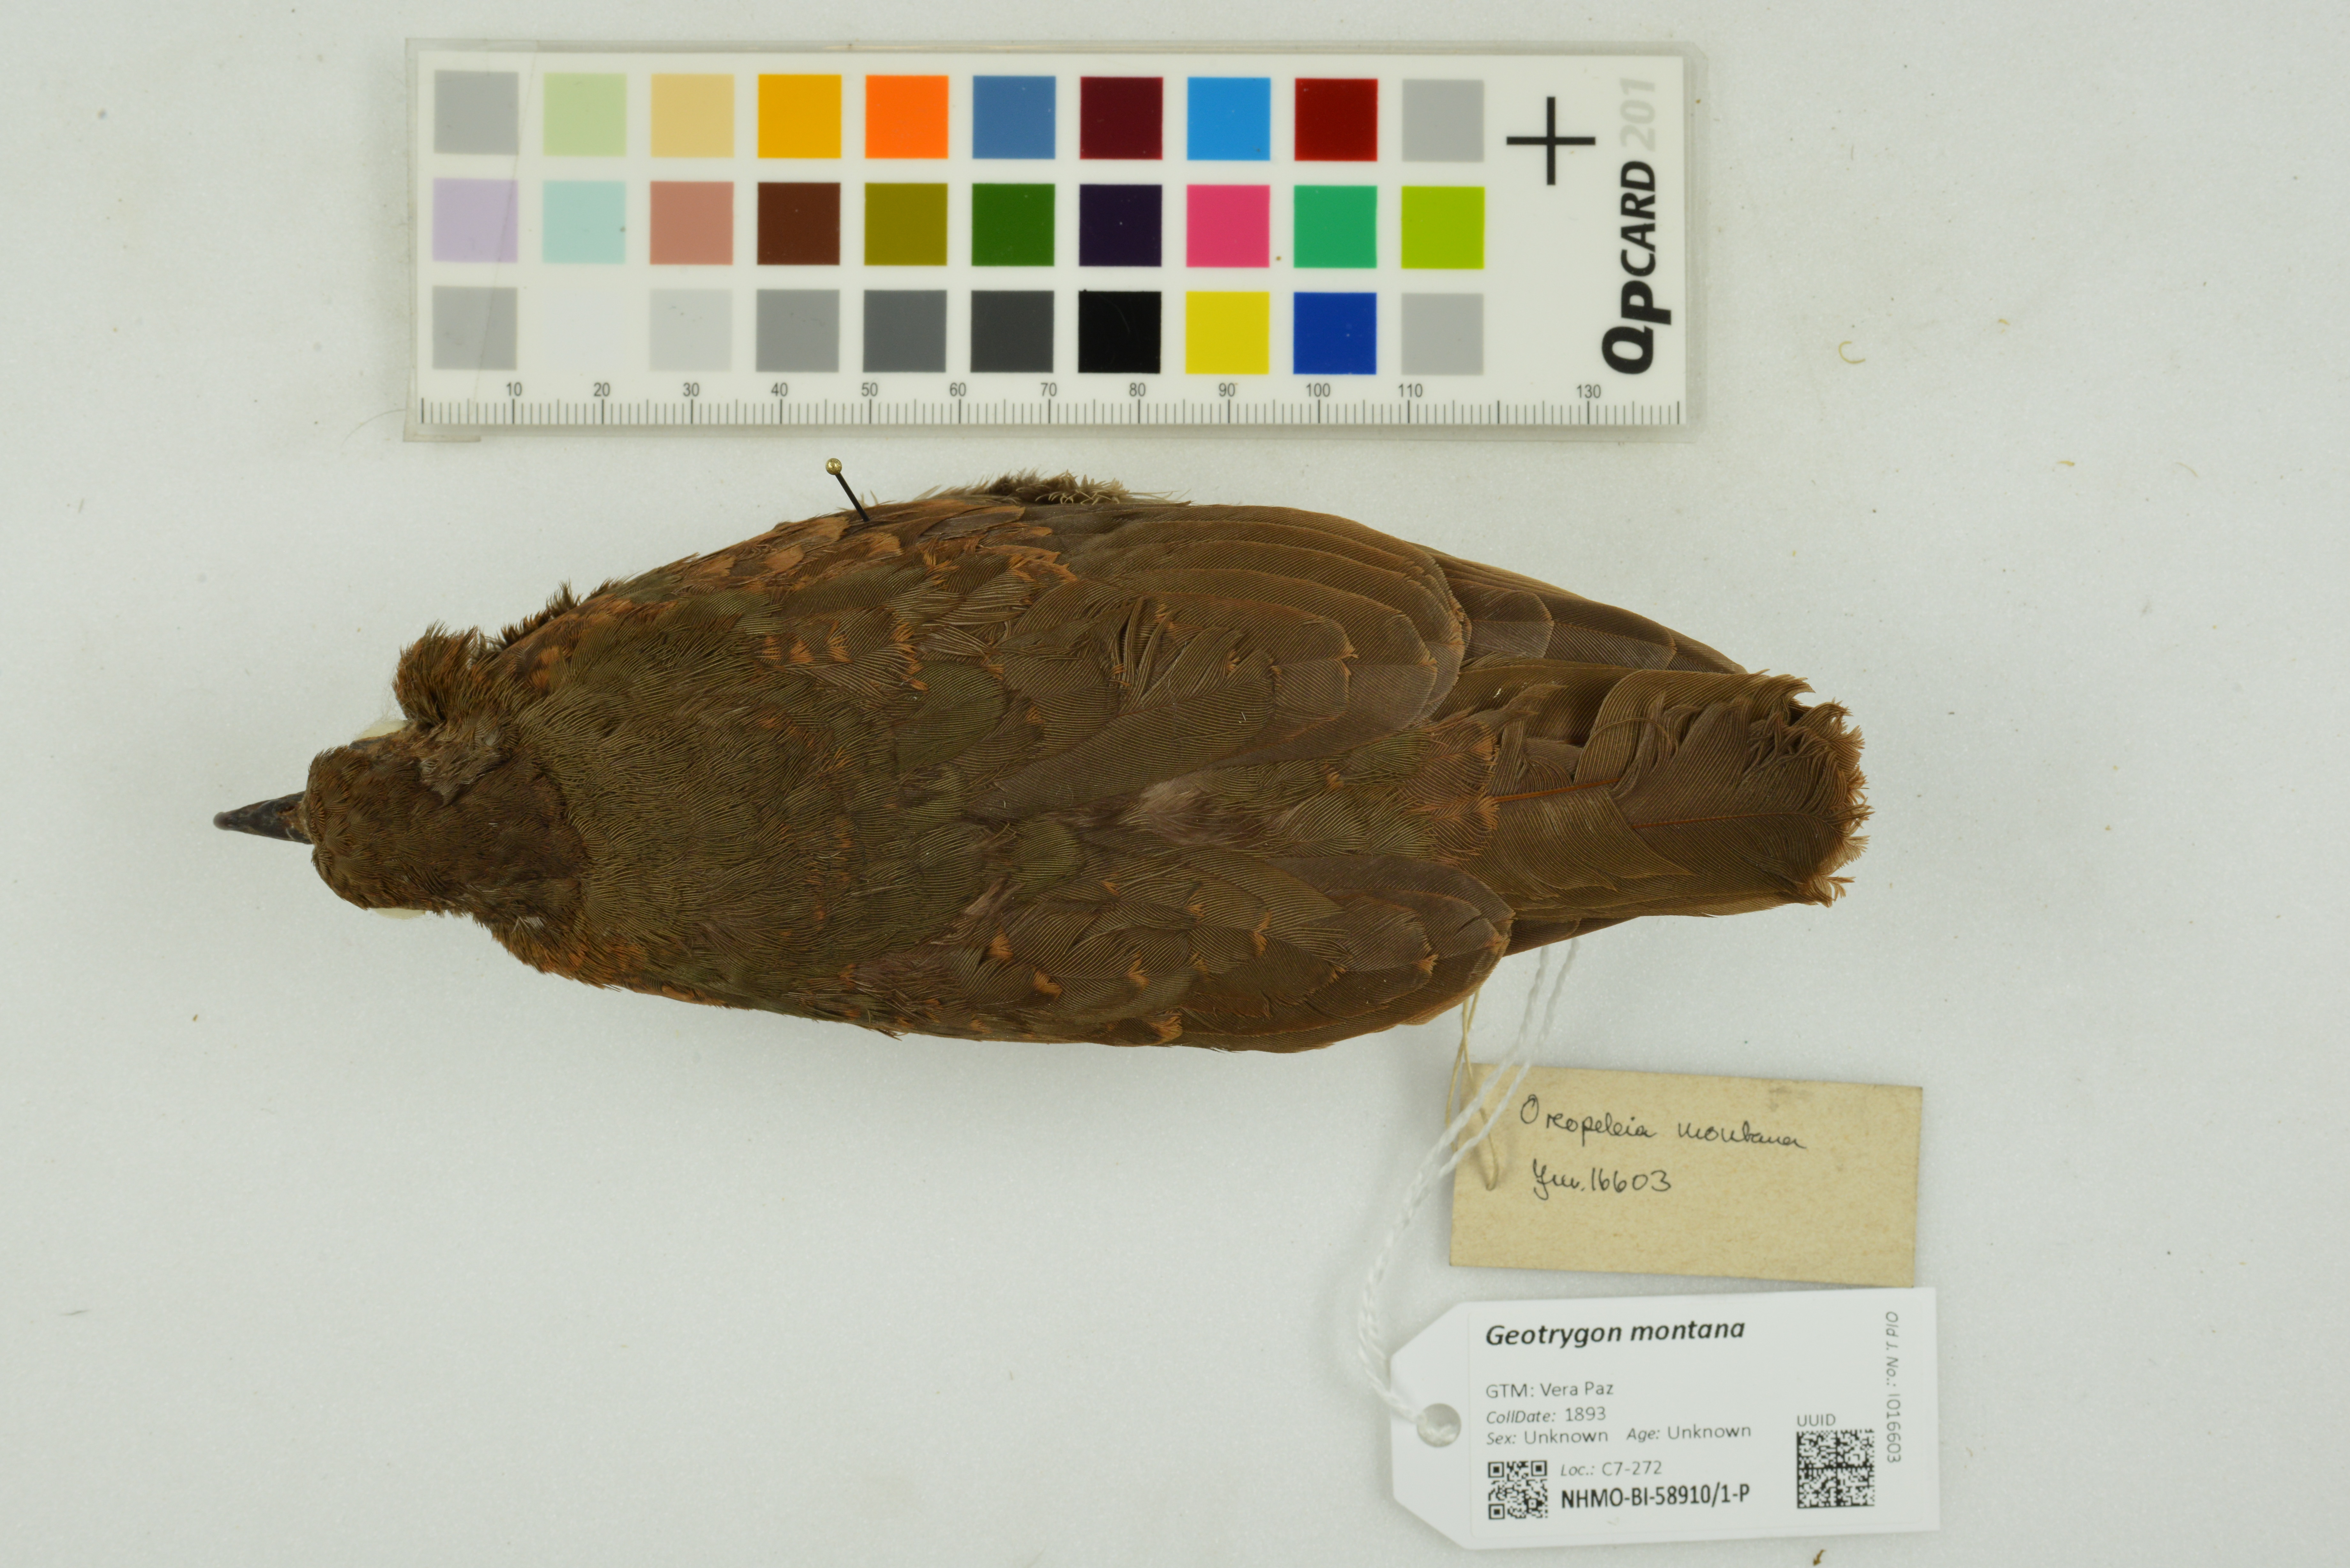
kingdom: Animalia
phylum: Chordata
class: Aves
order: Columbiformes
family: Columbidae
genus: Geotrygon
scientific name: Geotrygon montana
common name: Ruddy quail-dove
